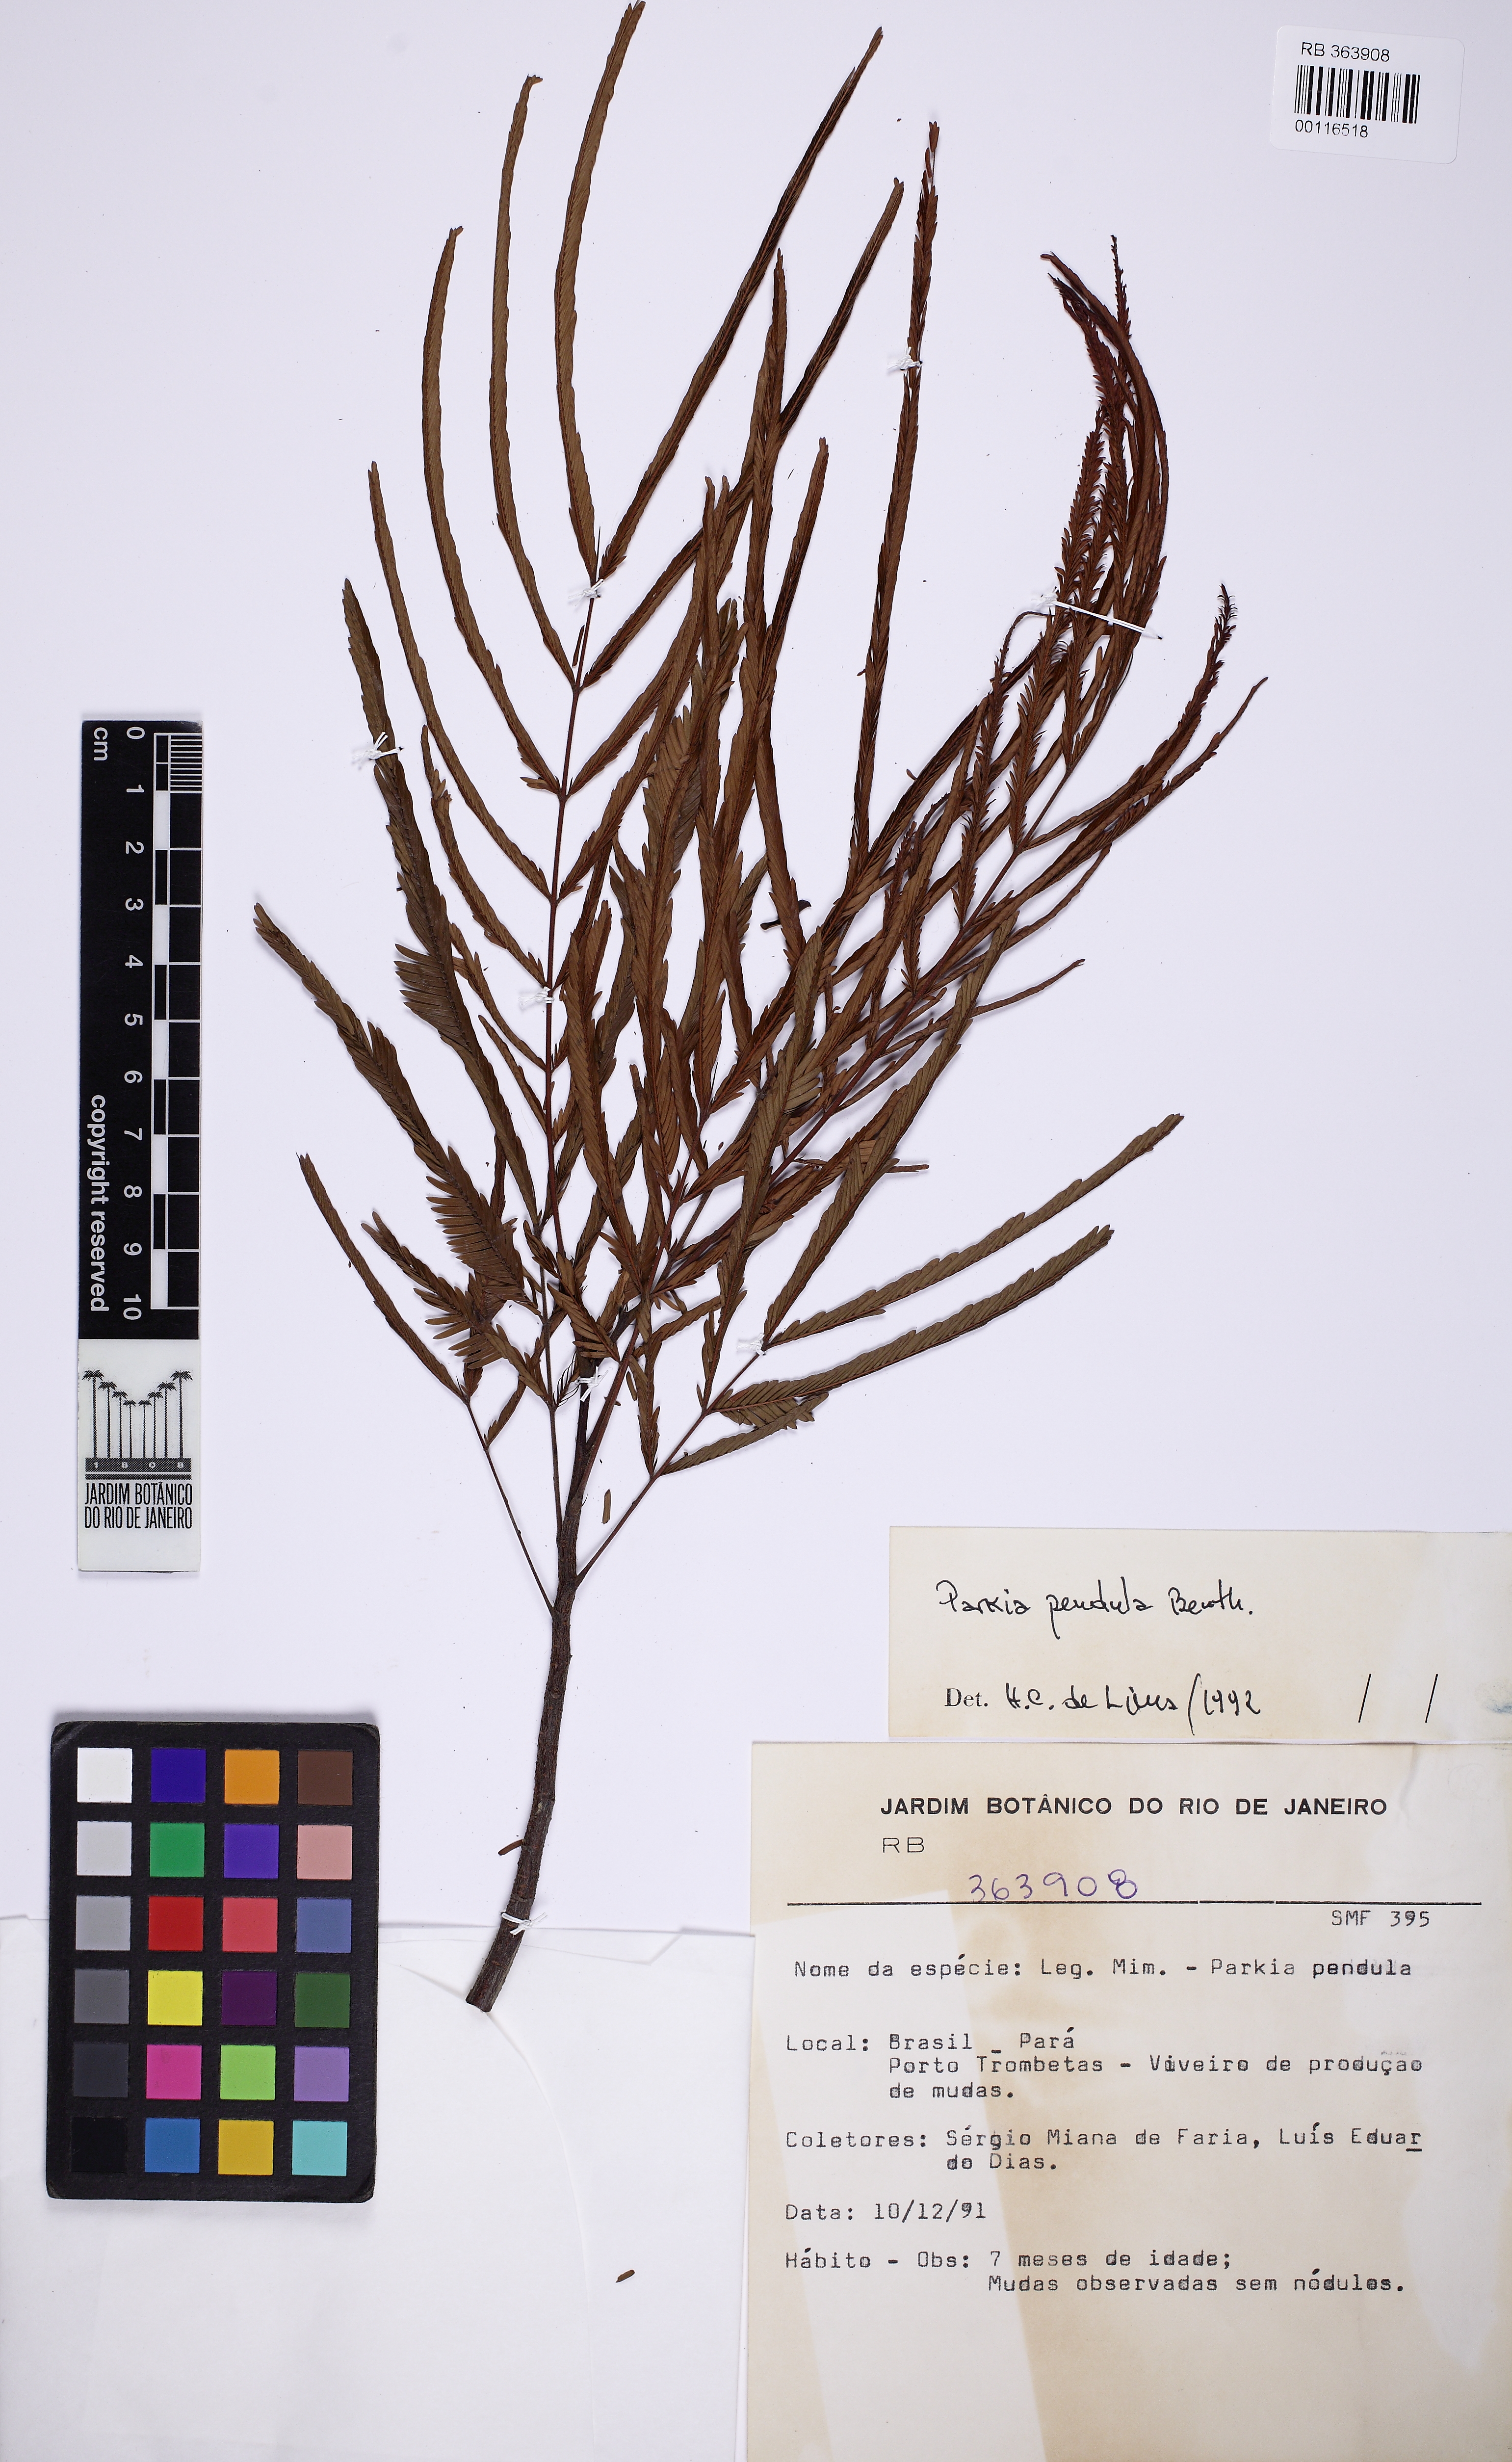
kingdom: Plantae
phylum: Tracheophyta
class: Magnoliopsida
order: Fabales
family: Fabaceae
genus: Parkia
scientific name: Parkia pendula
